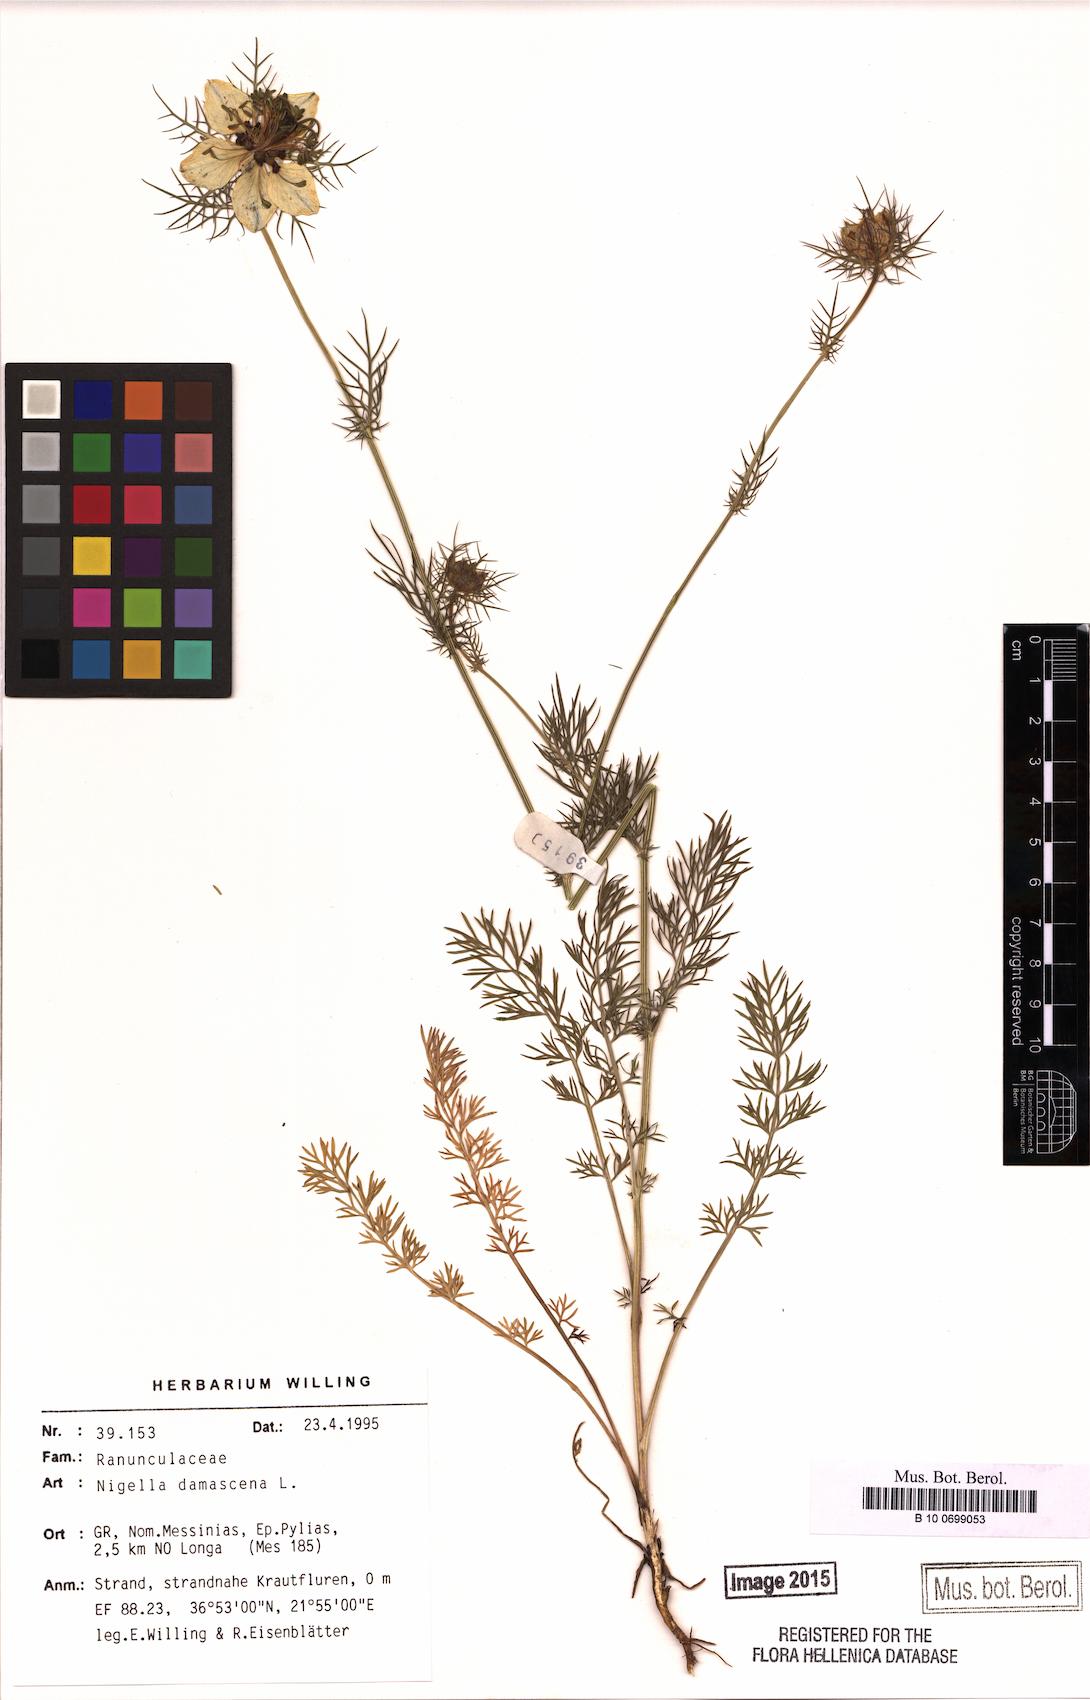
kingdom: Plantae
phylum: Tracheophyta
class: Magnoliopsida
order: Ranunculales
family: Ranunculaceae
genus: Nigella
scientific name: Nigella damascena
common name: Love-in-a-mist
